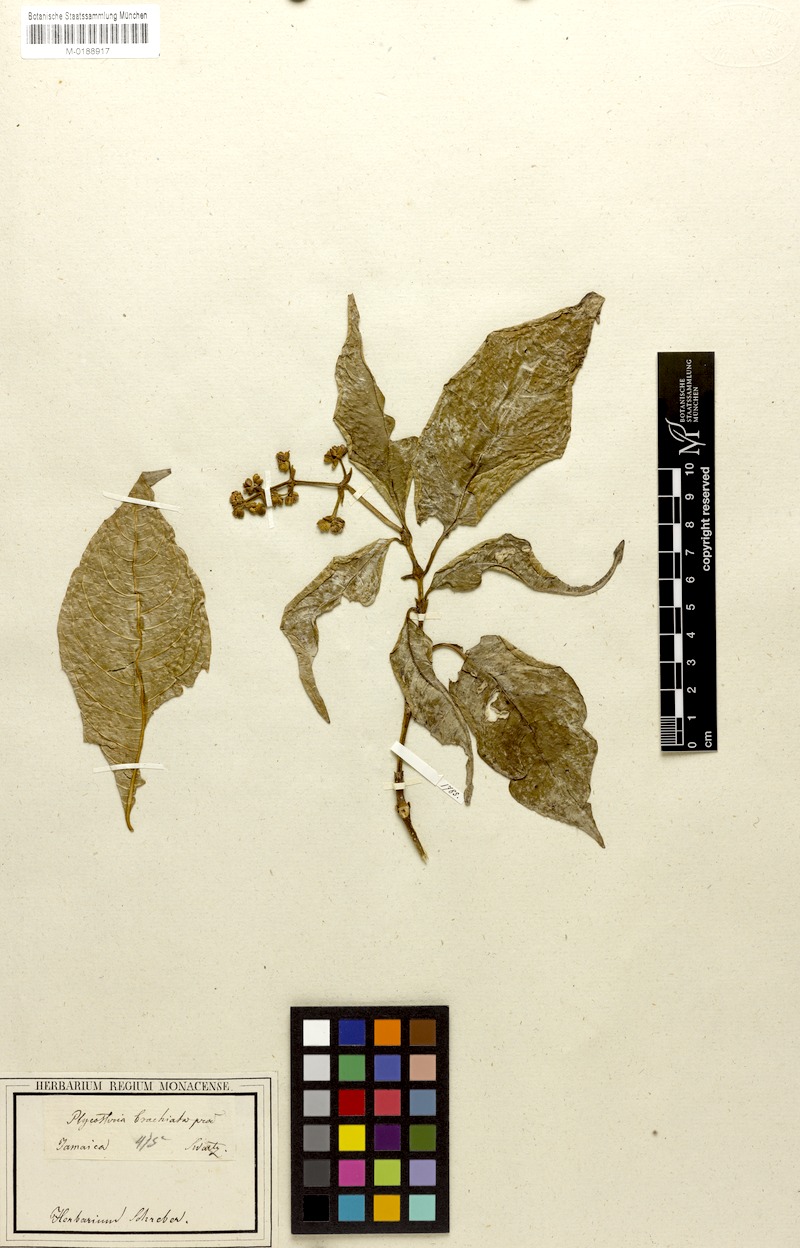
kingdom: Plantae
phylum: Tracheophyta
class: Magnoliopsida
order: Gentianales
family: Rubiaceae
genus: Palicourea
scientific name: Palicourea brachiata
